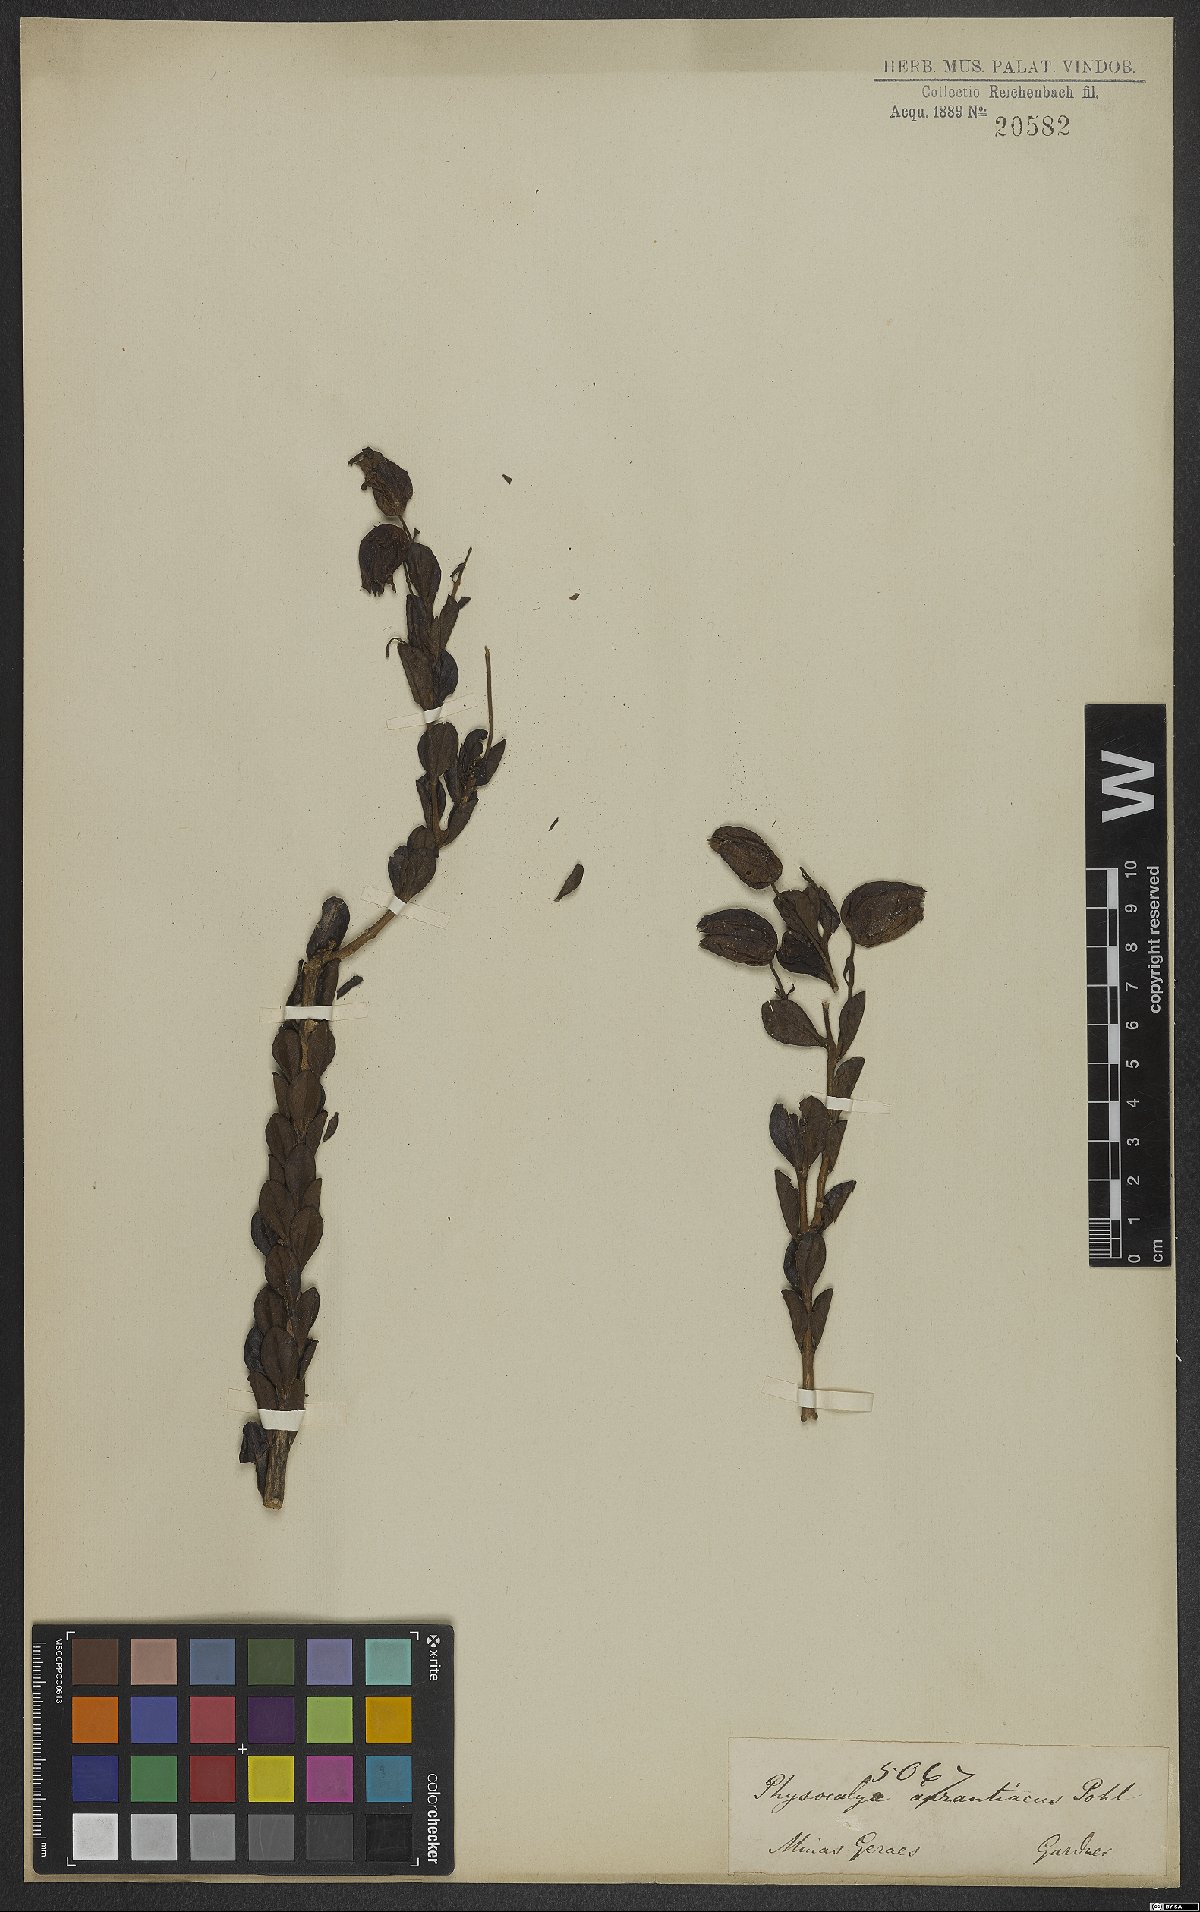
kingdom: Plantae
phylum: Tracheophyta
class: Magnoliopsida
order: Lamiales
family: Orobanchaceae
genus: Physocalyx
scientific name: Physocalyx aurantiacus
